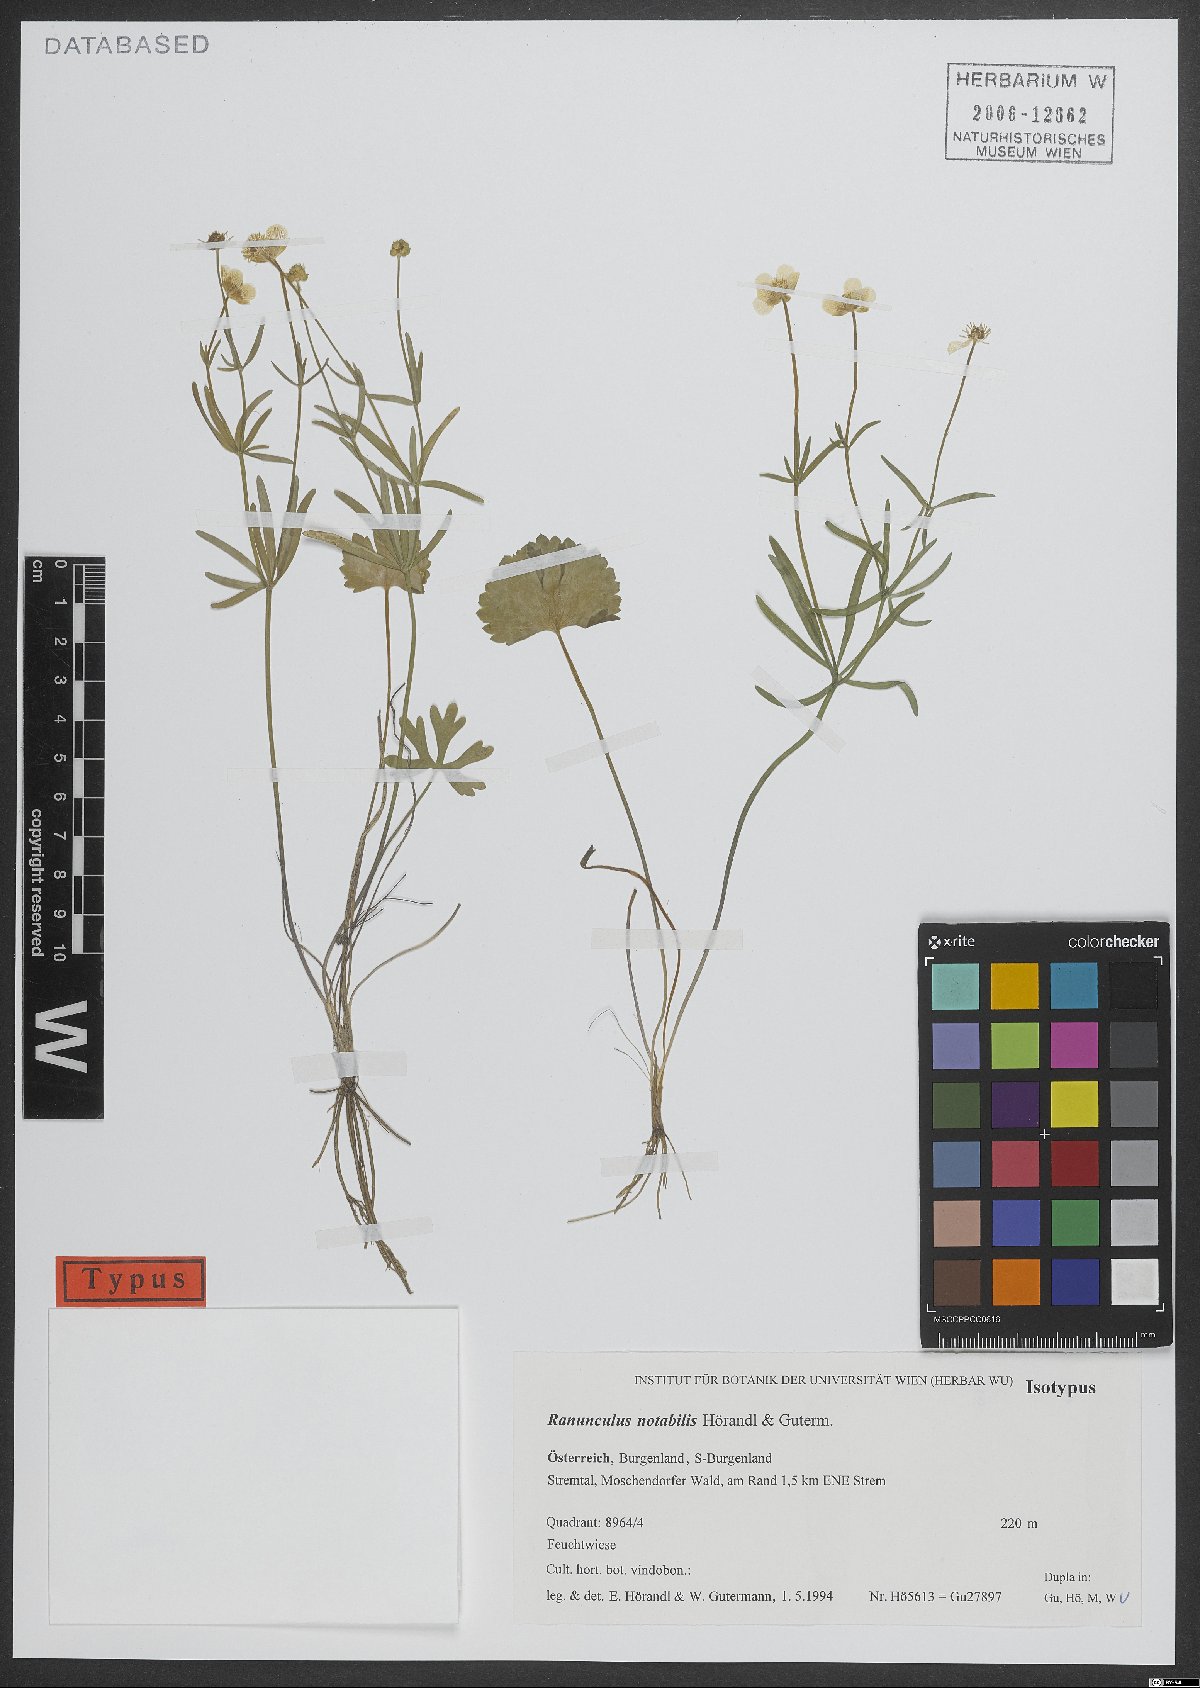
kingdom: Plantae
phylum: Tracheophyta
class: Magnoliopsida
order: Ranunculales
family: Ranunculaceae
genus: Ranunculus
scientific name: Ranunculus notabilis
